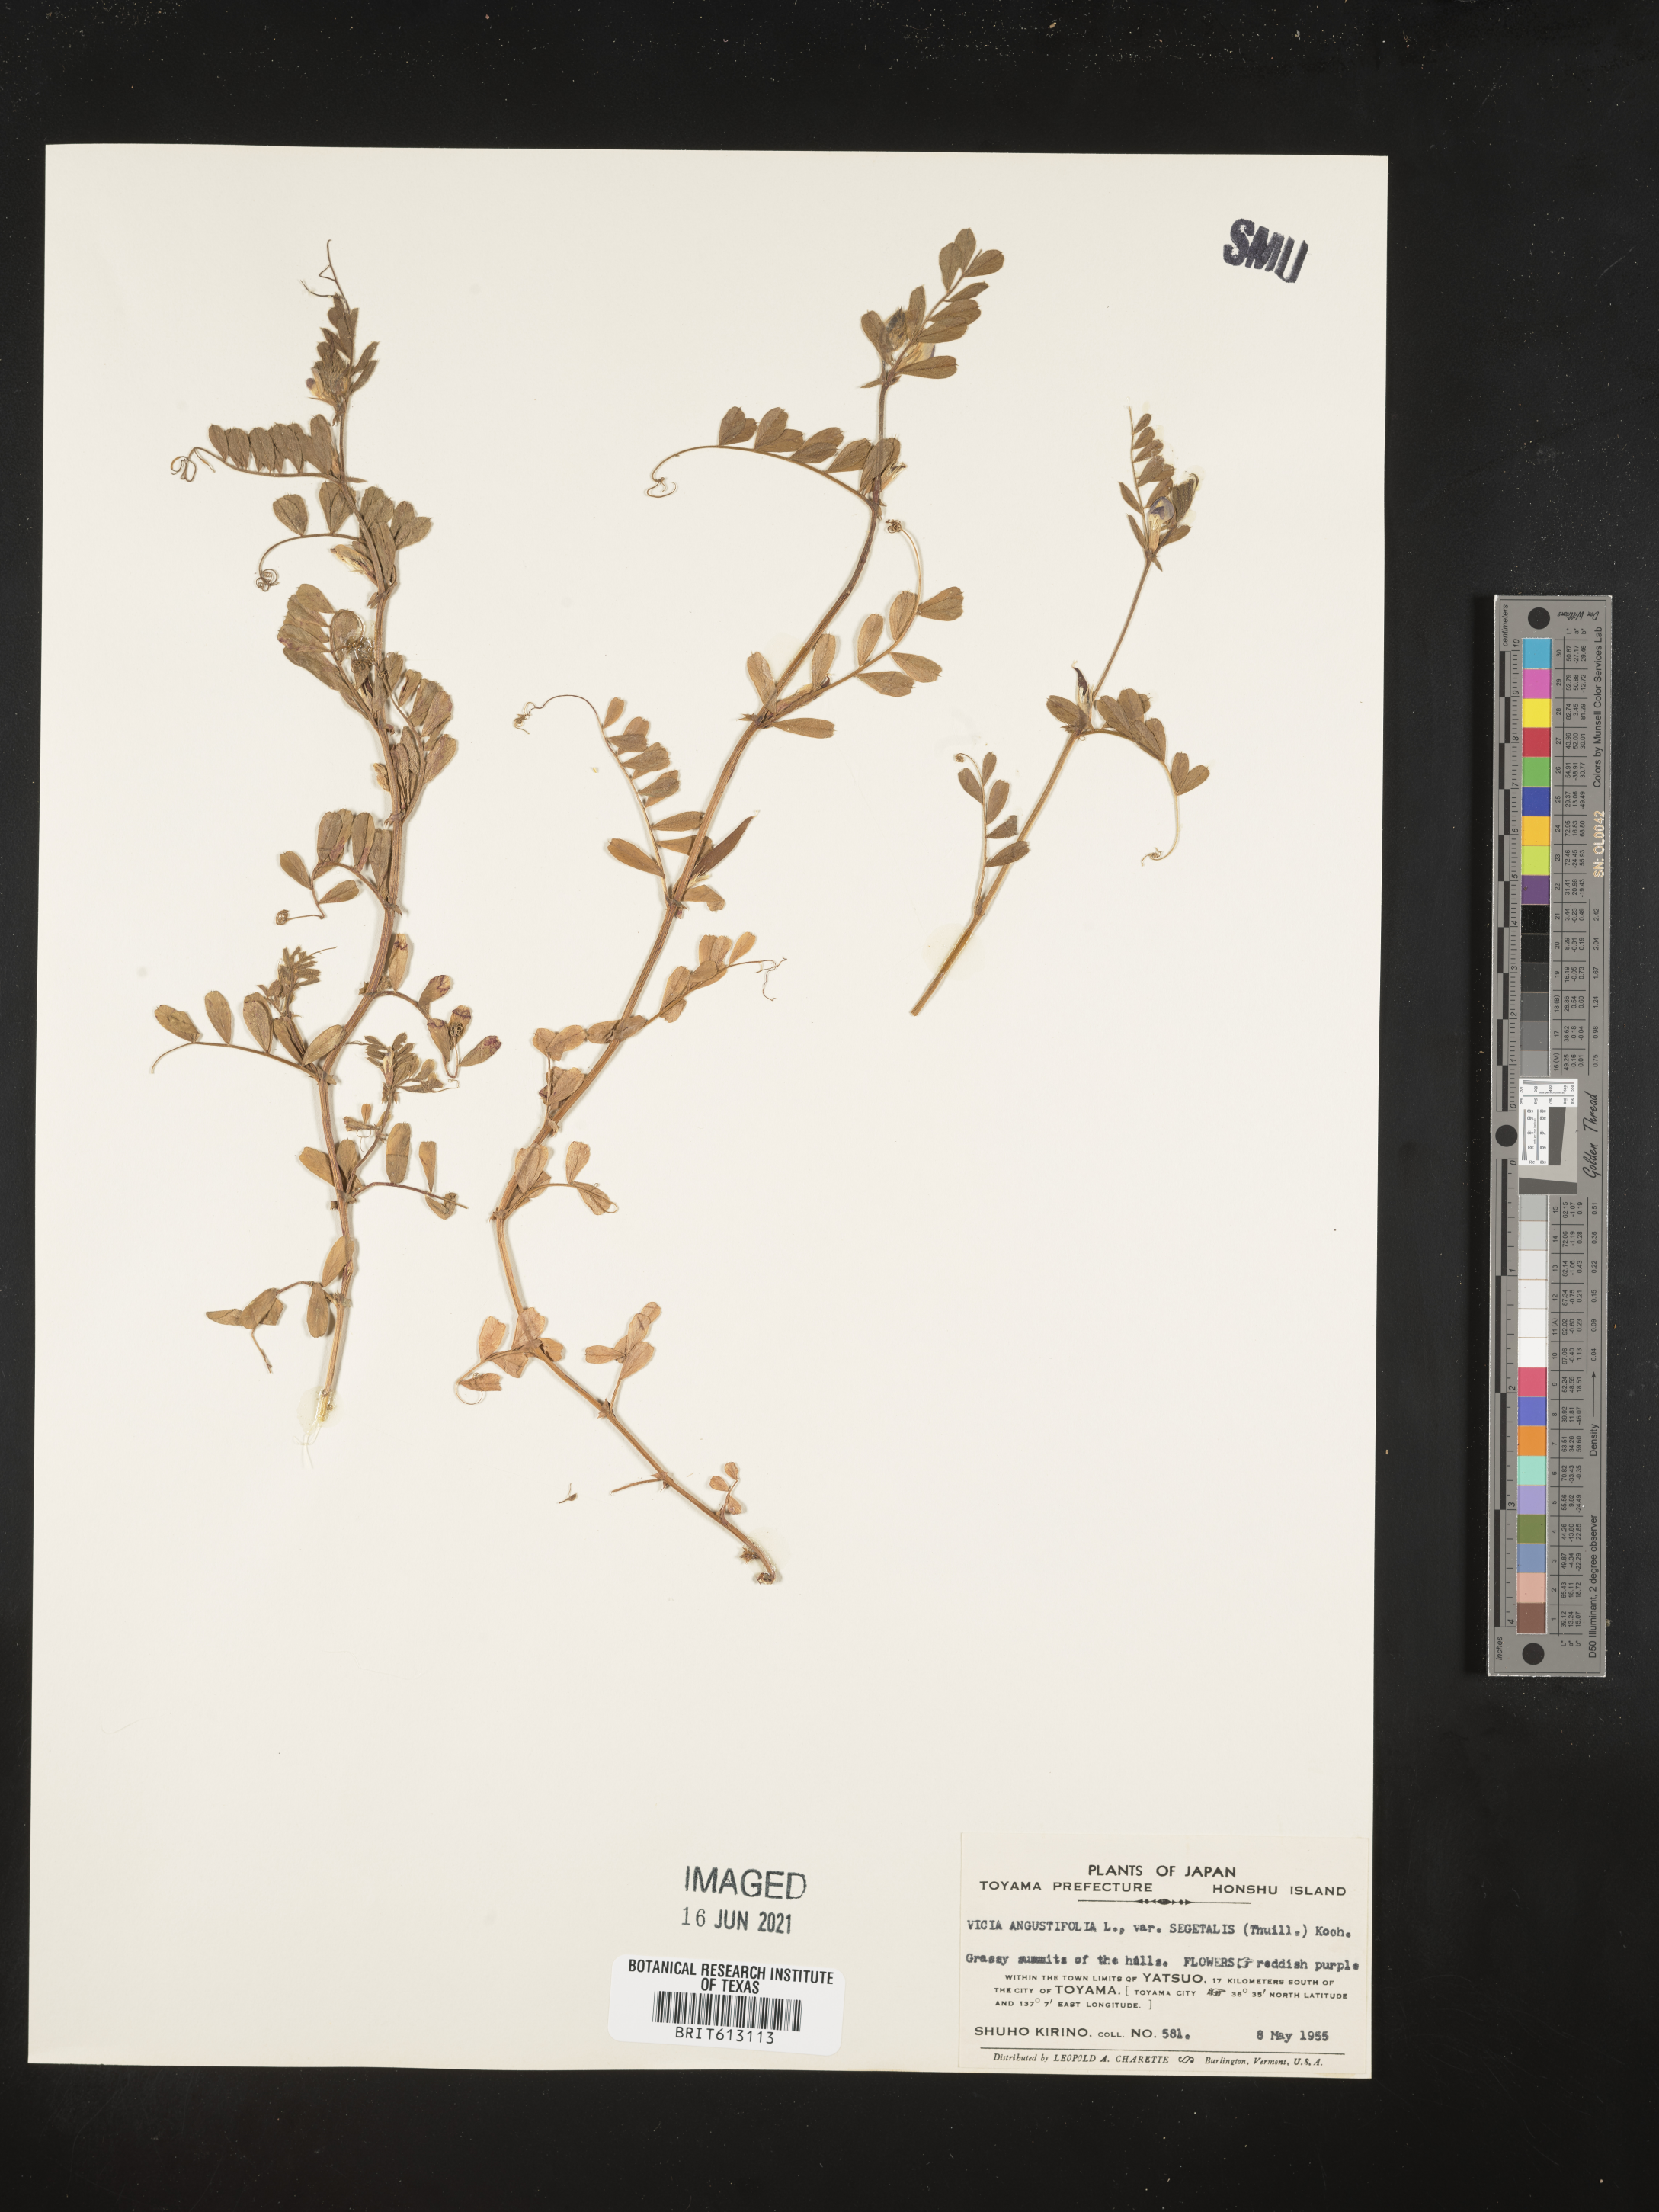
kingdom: Plantae
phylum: Tracheophyta
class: Magnoliopsida
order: Fabales
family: Fabaceae
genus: Vicia
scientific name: Vicia sativa
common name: Garden vetch
